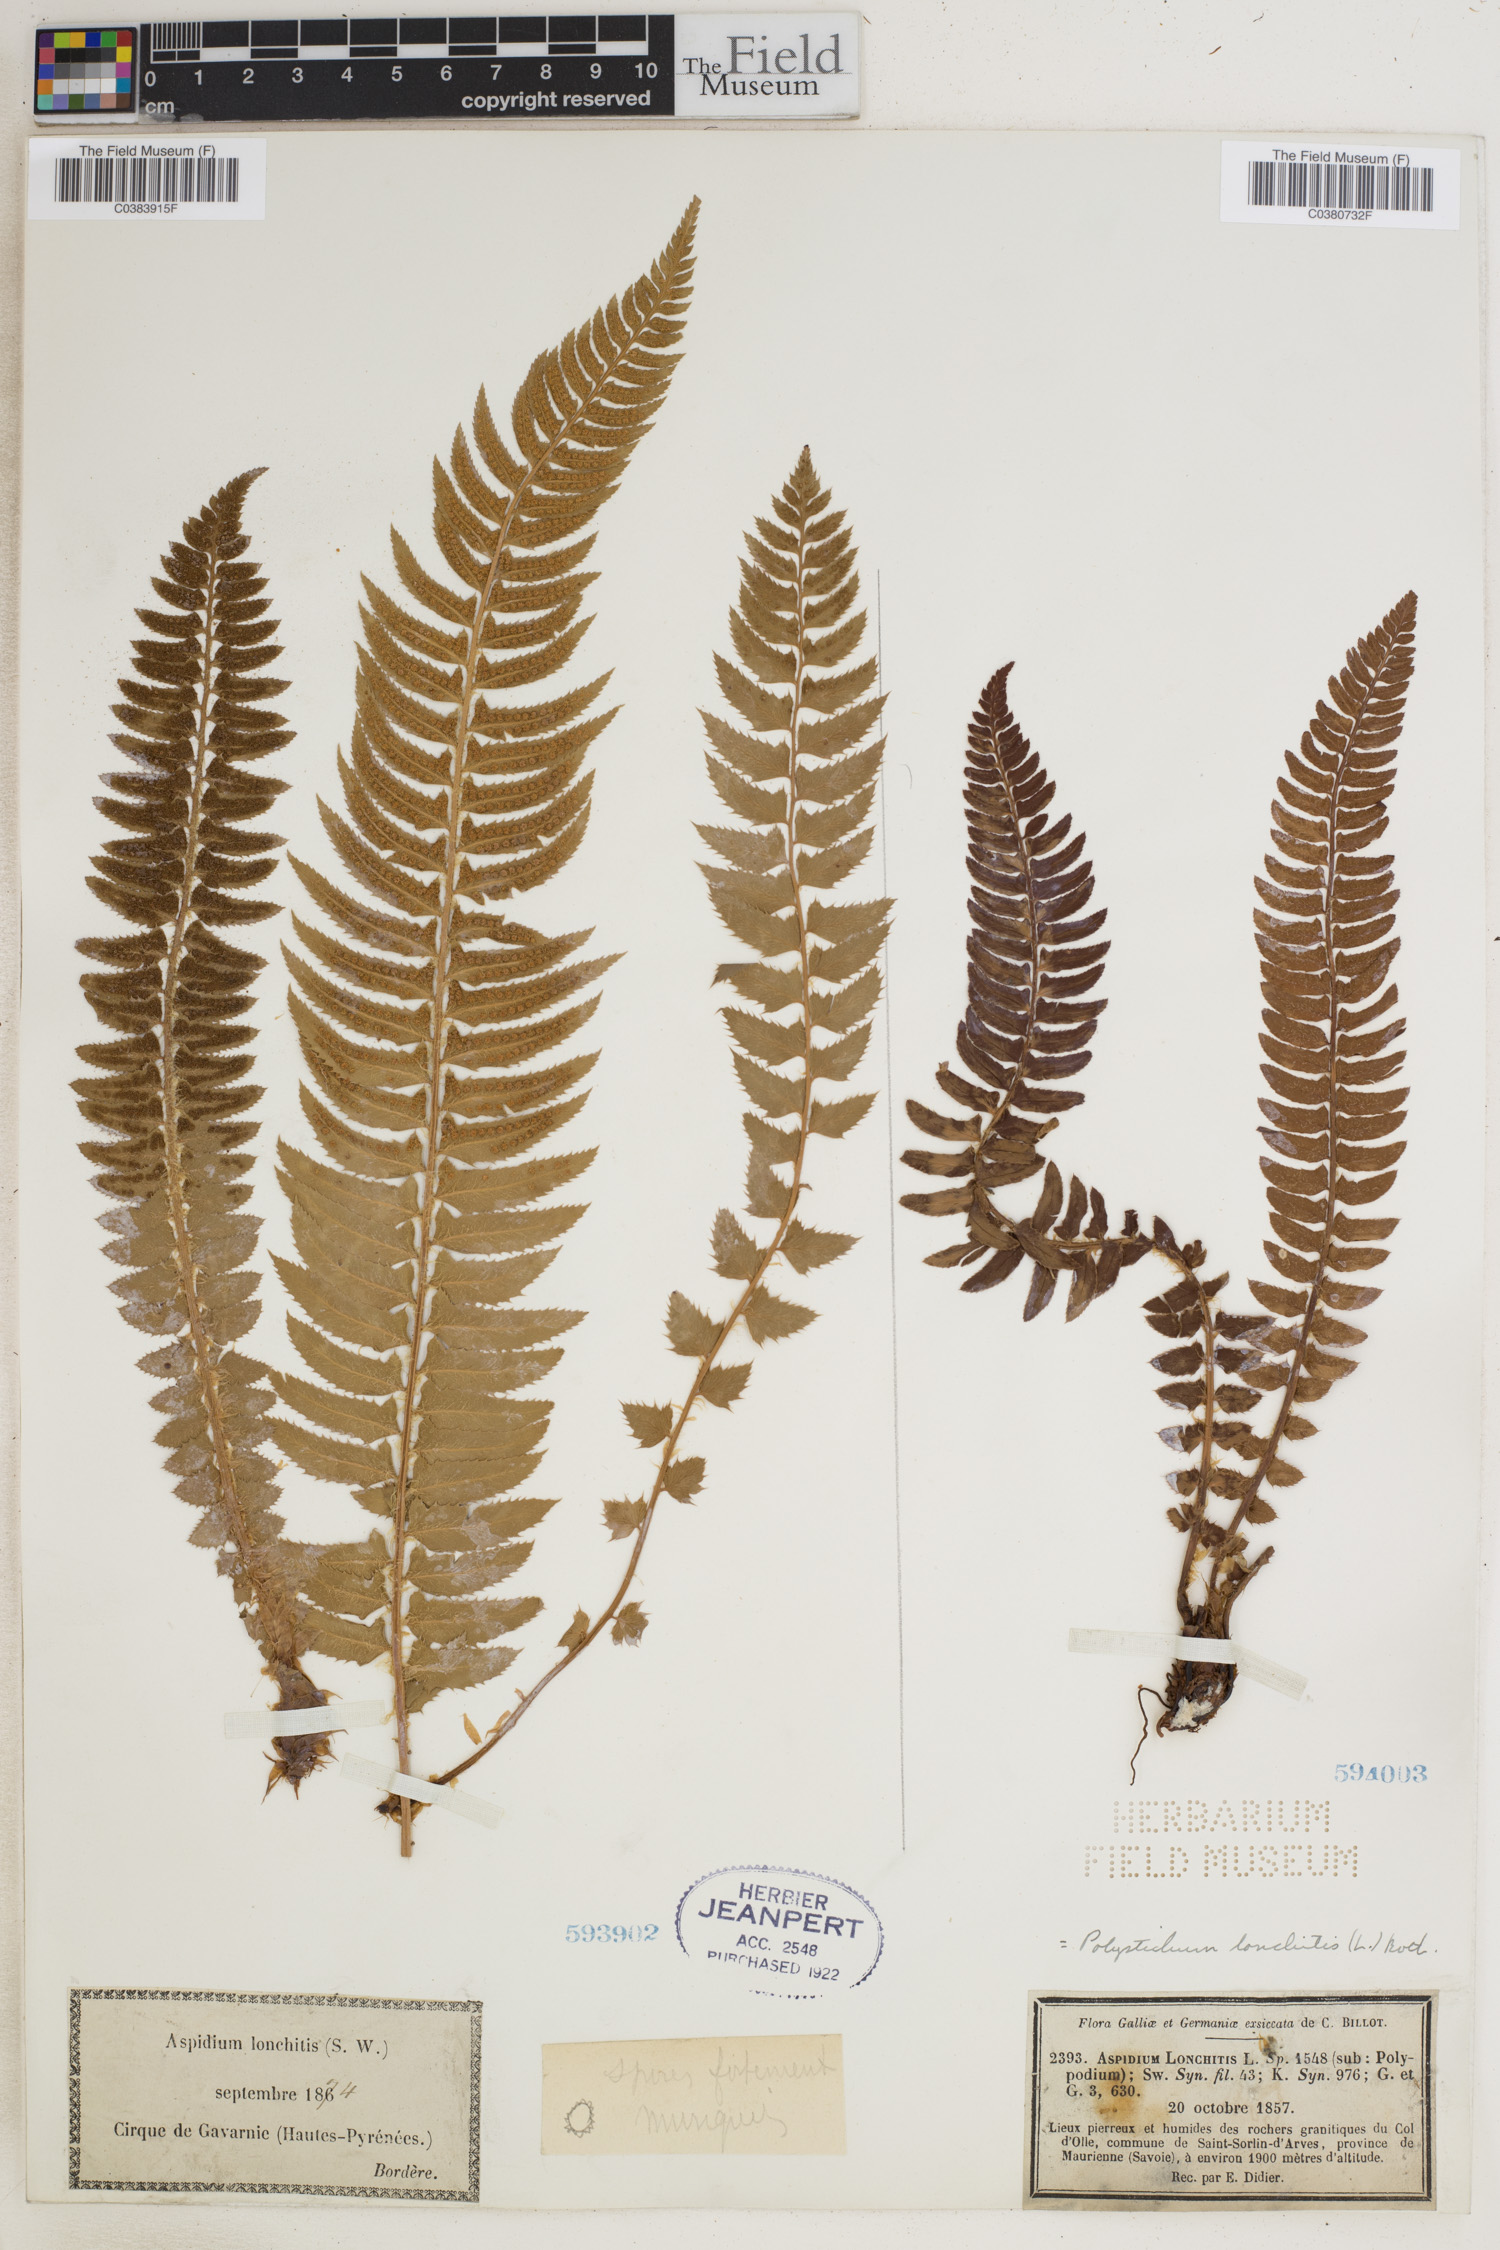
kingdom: Plantae
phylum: Tracheophyta
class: Polypodiopsida
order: Polypodiales
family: Dryopteridaceae
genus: Polystichum
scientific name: Polystichum lonchitis
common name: Holly fern
